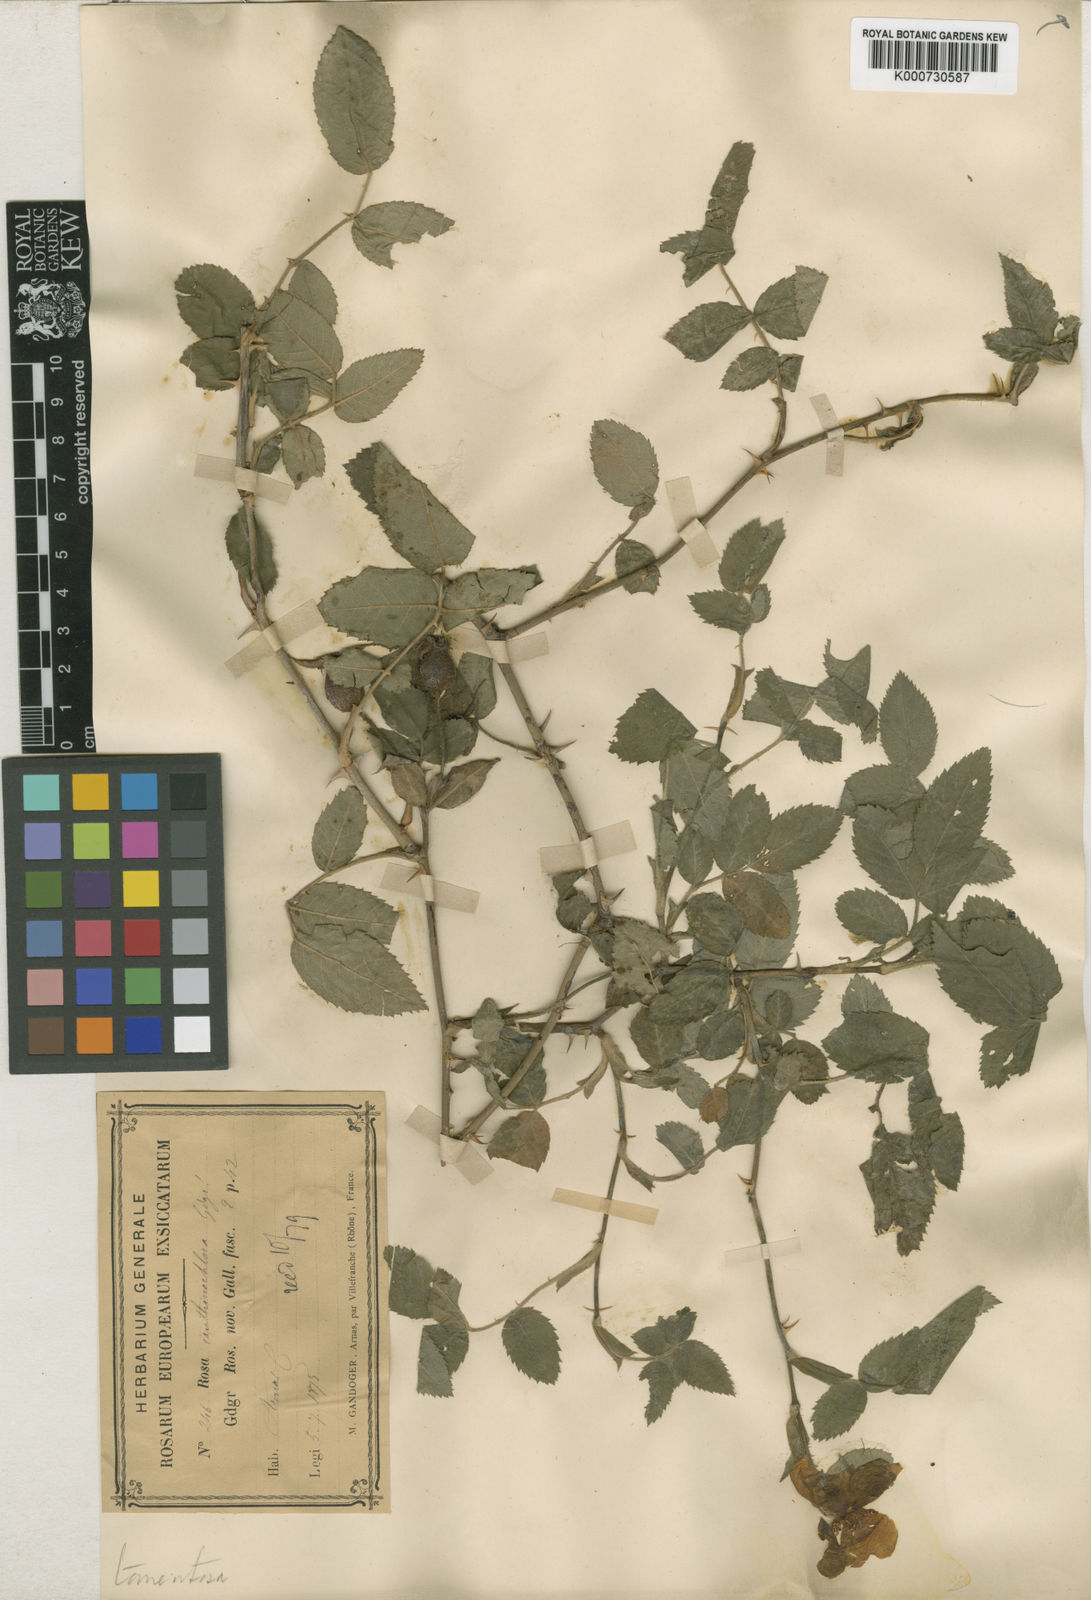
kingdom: Plantae
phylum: Tracheophyta
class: Magnoliopsida
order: Rosales
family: Rosaceae
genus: Rosa
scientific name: Rosa tomentosa
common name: Downy rose
